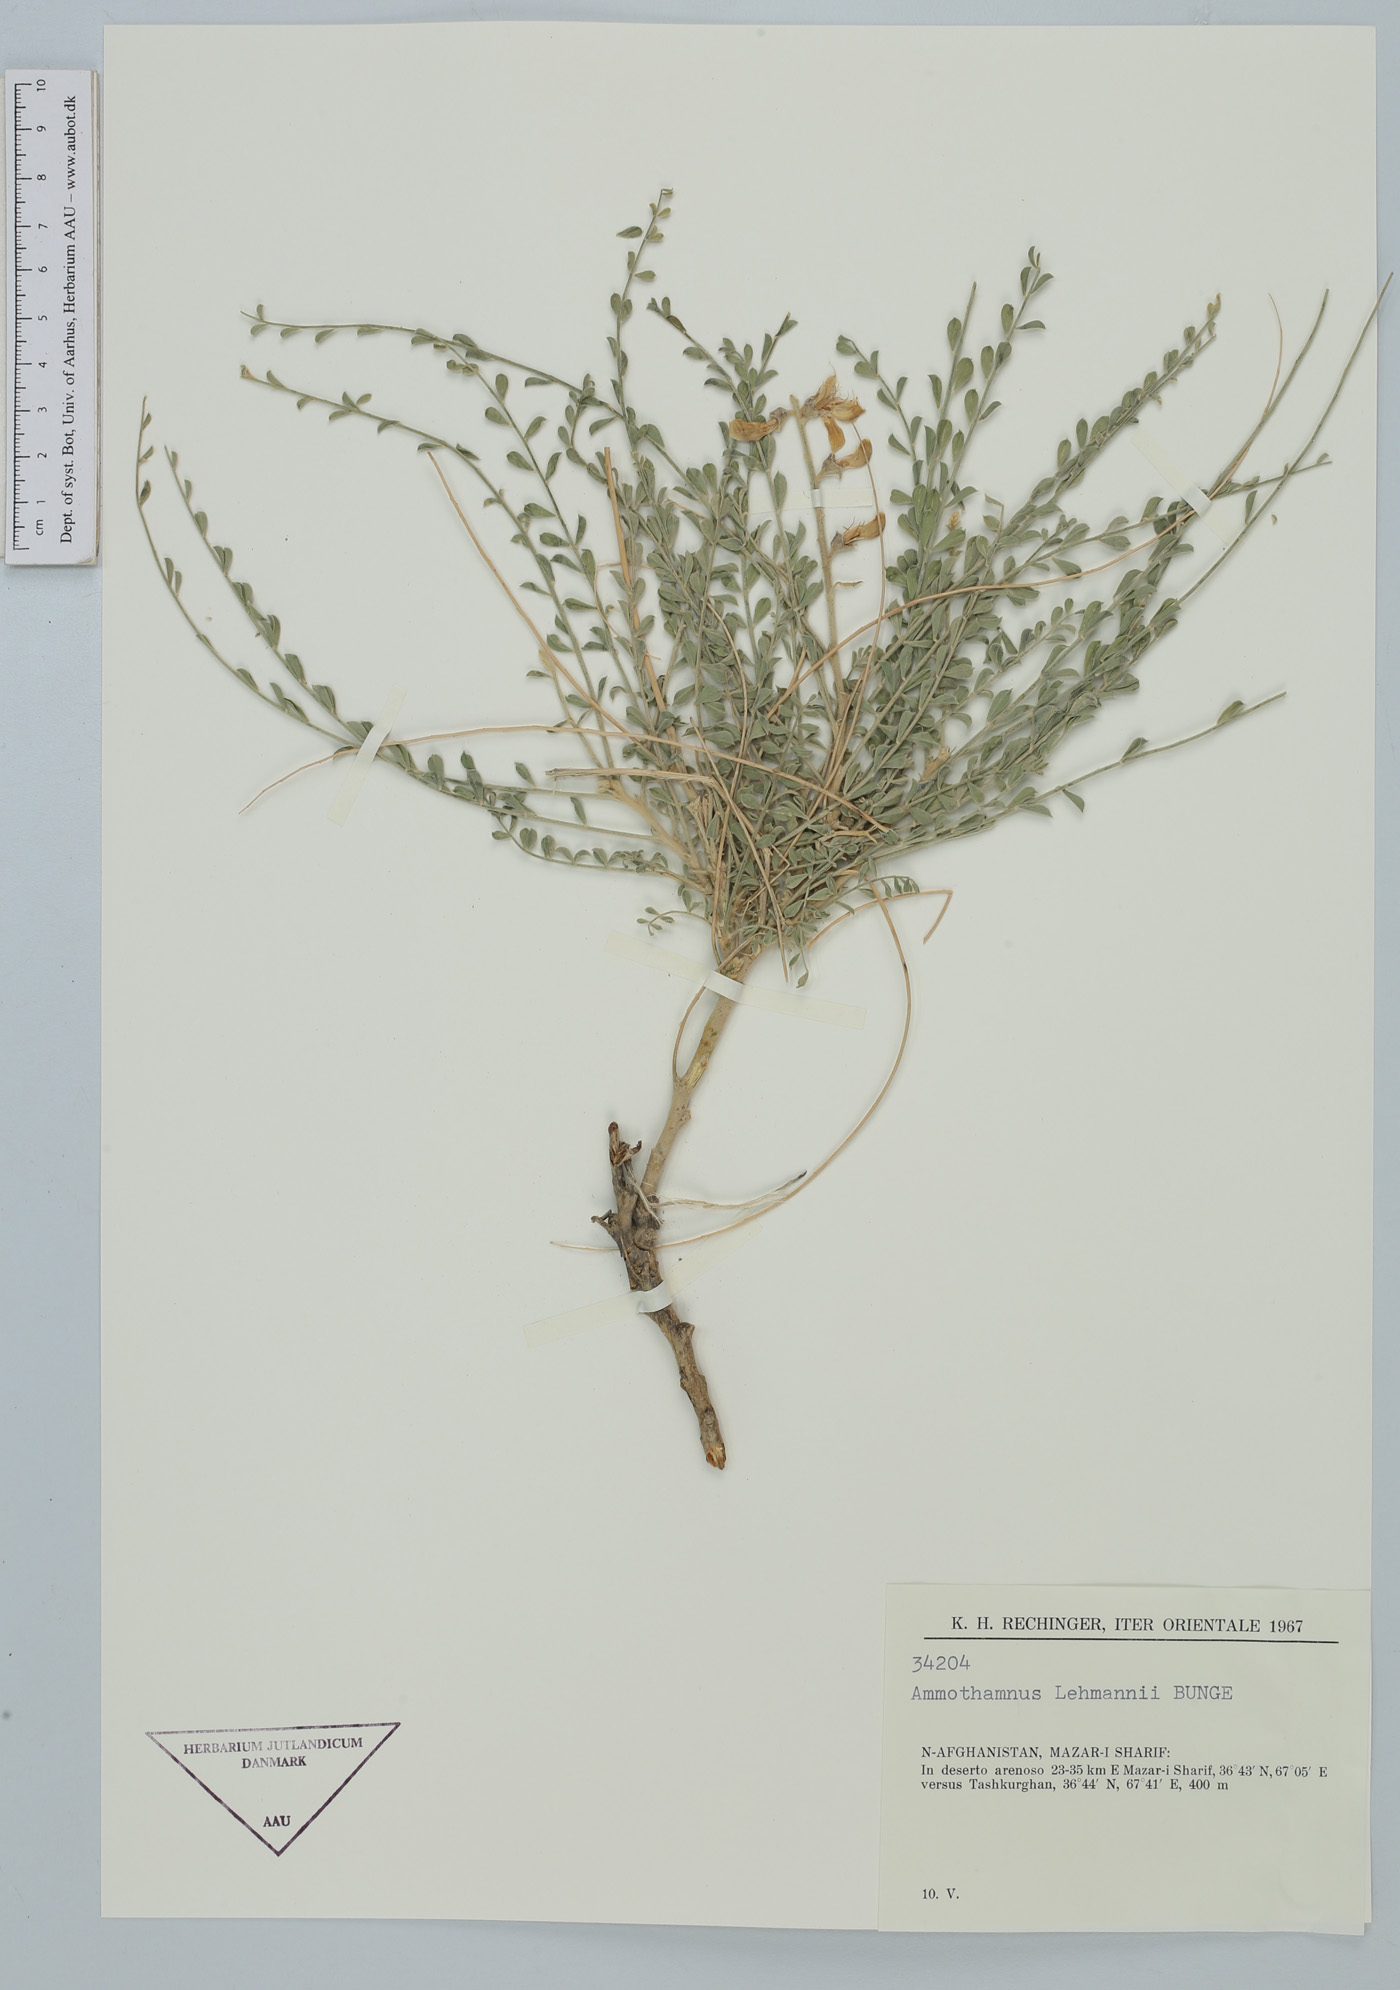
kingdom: Plantae
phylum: Tracheophyta
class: Magnoliopsida
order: Fabales
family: Fabaceae
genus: Sophora
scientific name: Sophora lehmannii
